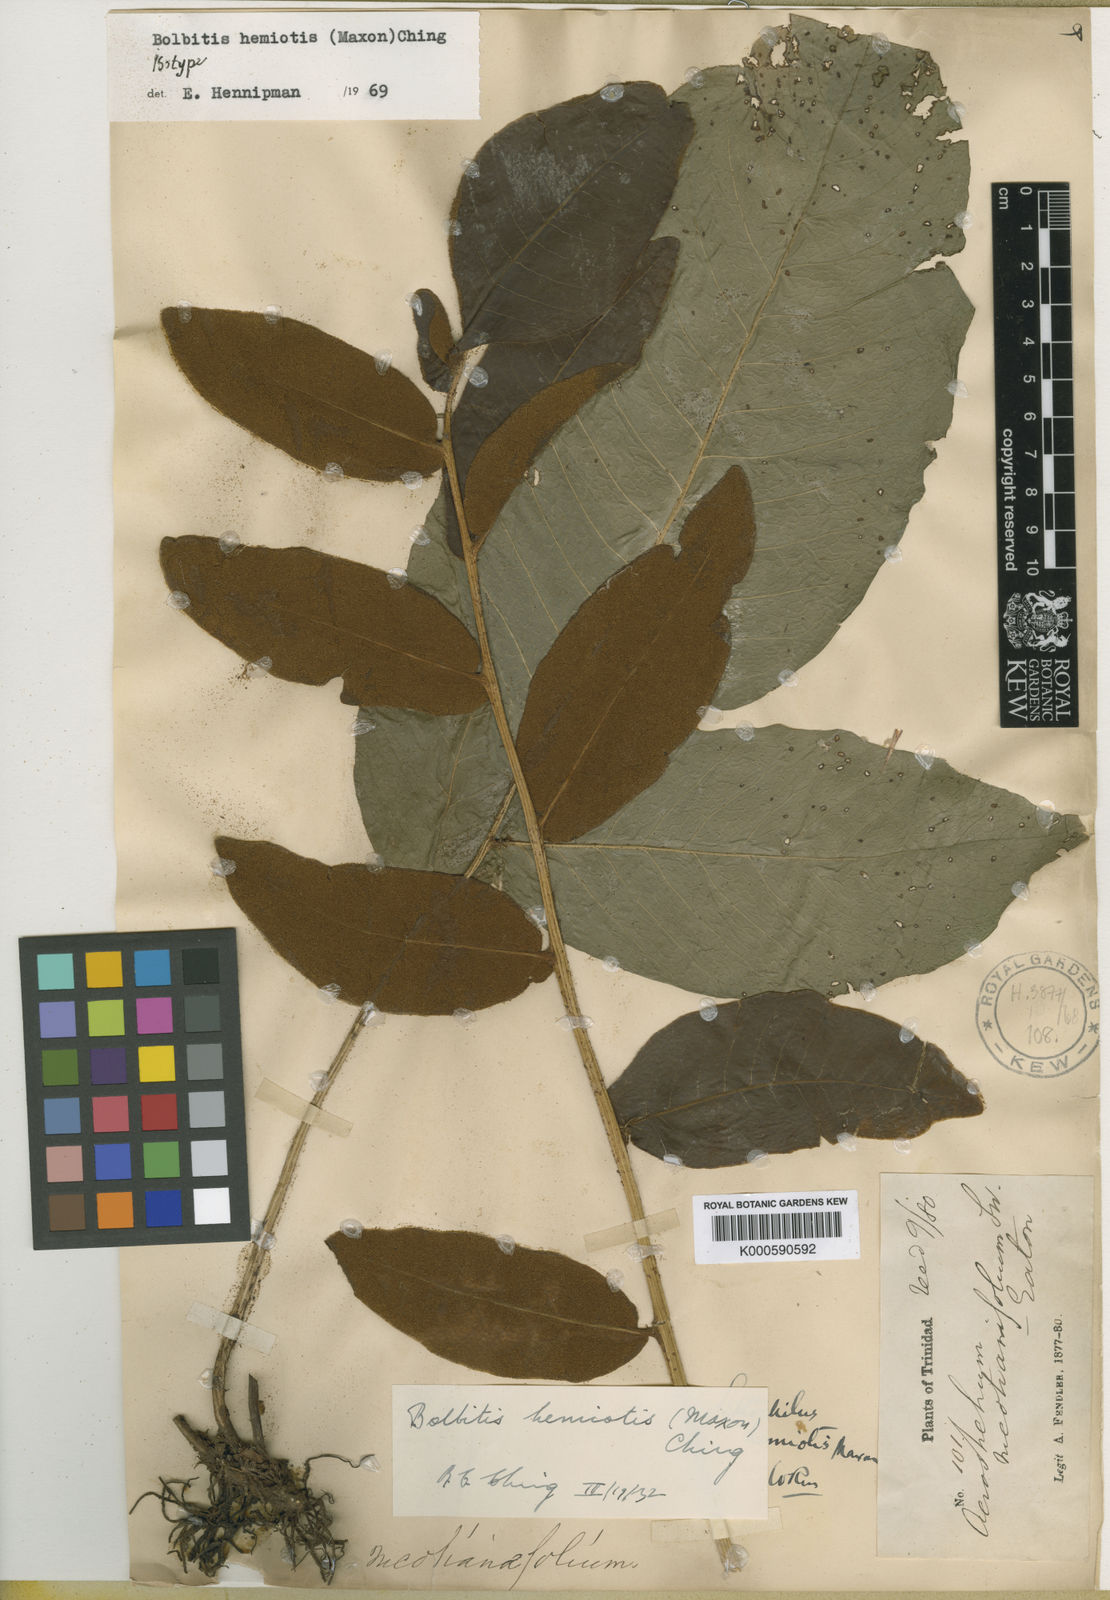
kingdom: Plantae
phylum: Tracheophyta
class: Polypodiopsida
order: Polypodiales
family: Dryopteridaceae
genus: Mickelia
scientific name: Mickelia hemiotis
